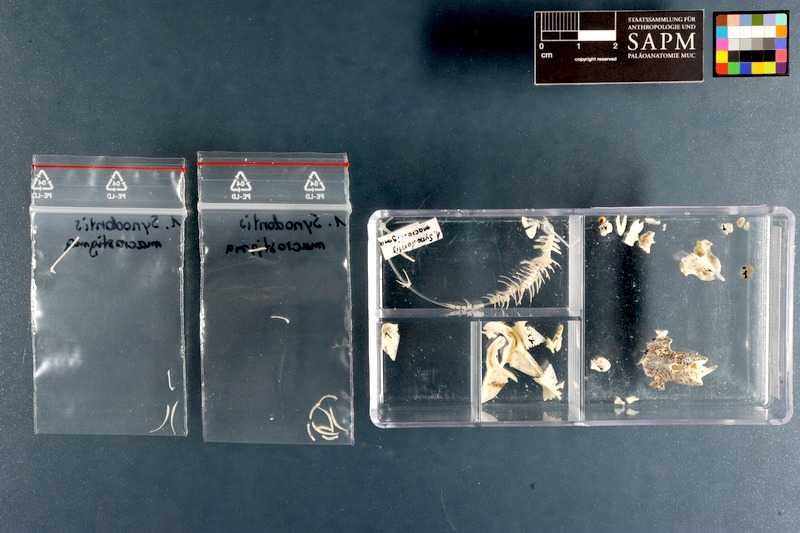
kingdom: Animalia
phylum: Chordata
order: Siluriformes
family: Mochokidae
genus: Synodontis
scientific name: Synodontis macrostigma
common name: Largespot squeaker
